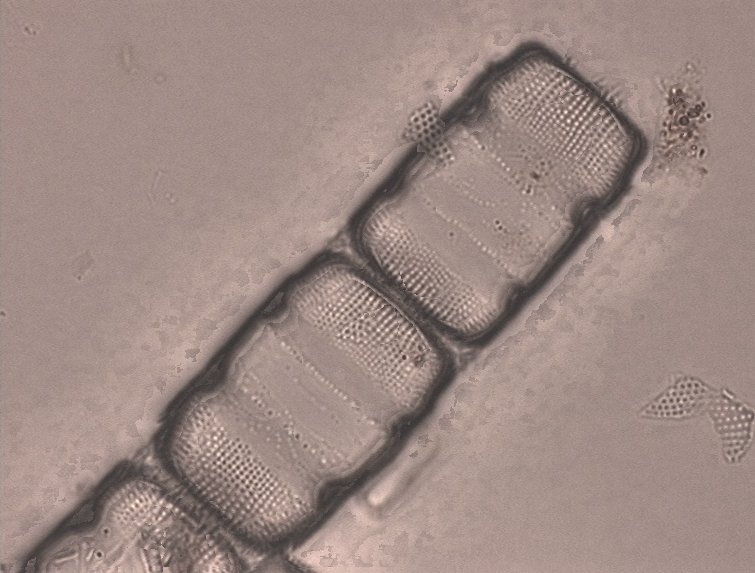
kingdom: Chromista
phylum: Ochrophyta
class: Bacillariophyceae
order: Melosirales
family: Melosiraceae
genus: Melosira
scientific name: Melosira roeseana
